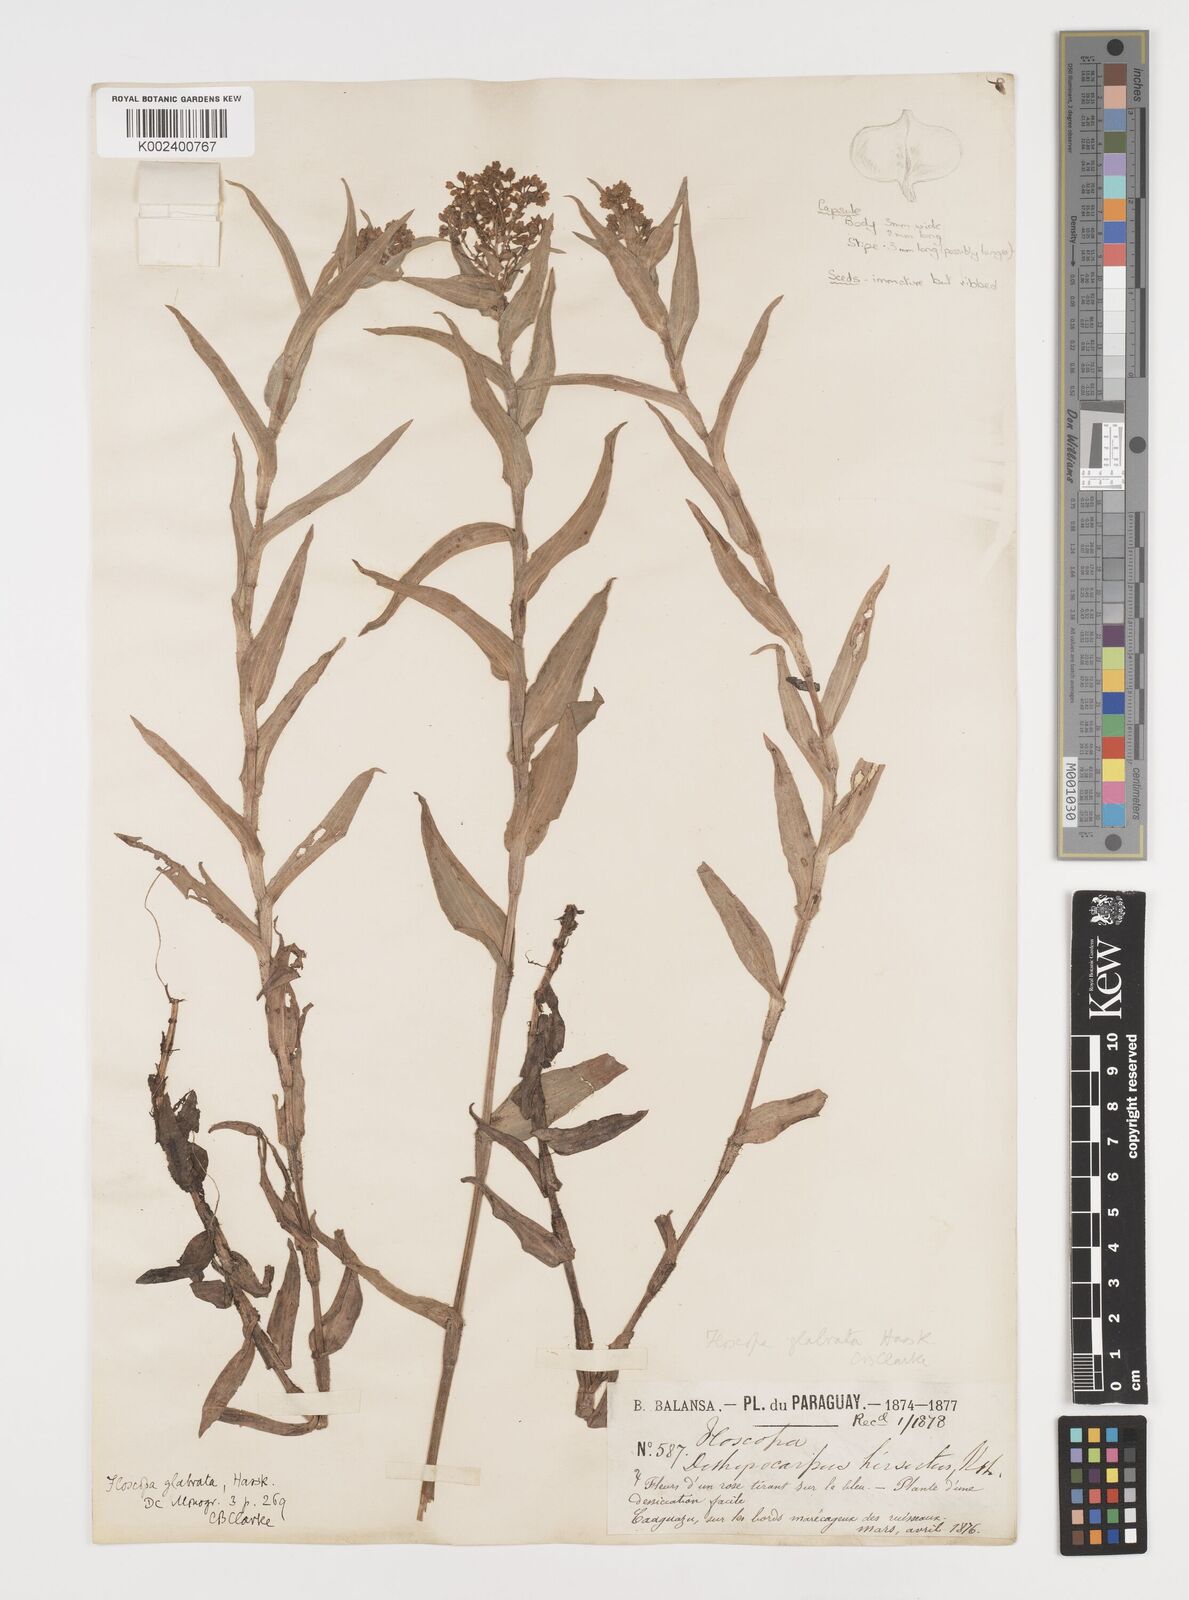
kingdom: Plantae
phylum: Tracheophyta
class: Liliopsida
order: Commelinales
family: Commelinaceae
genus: Floscopa
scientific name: Floscopa glabrata
